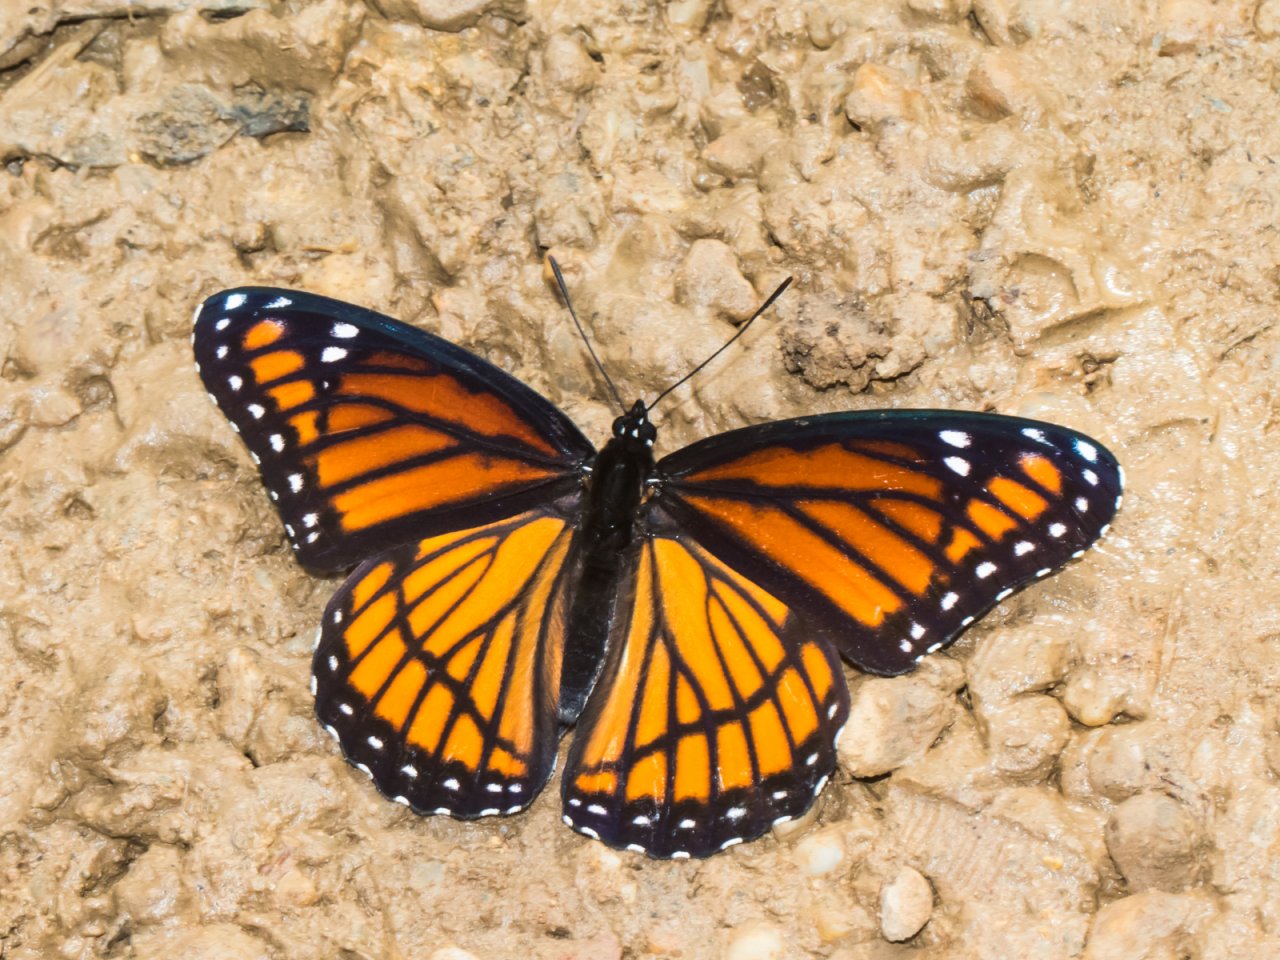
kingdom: Animalia
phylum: Arthropoda
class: Insecta
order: Lepidoptera
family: Nymphalidae
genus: Limenitis
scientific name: Limenitis archippus
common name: Viceroy
